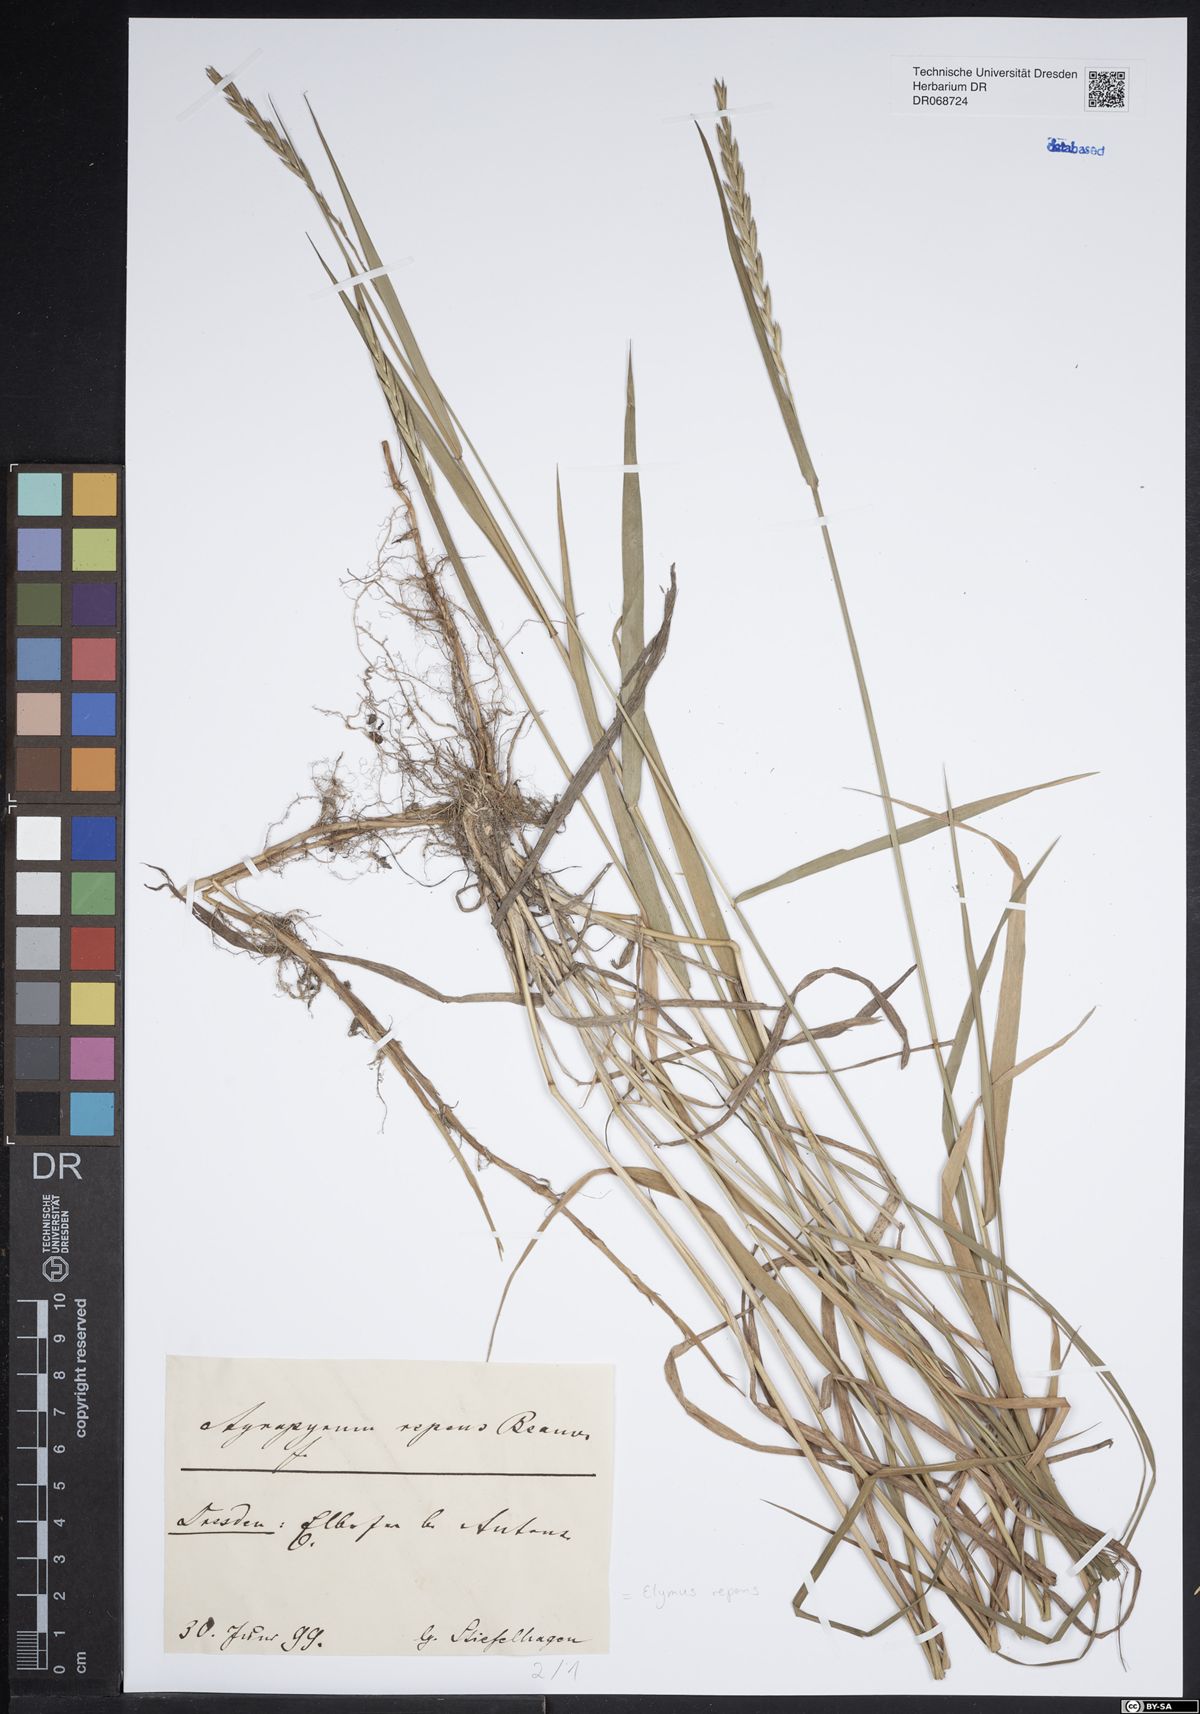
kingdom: Plantae
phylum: Tracheophyta
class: Liliopsida
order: Poales
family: Poaceae
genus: Elymus
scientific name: Elymus repens
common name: Quackgrass
